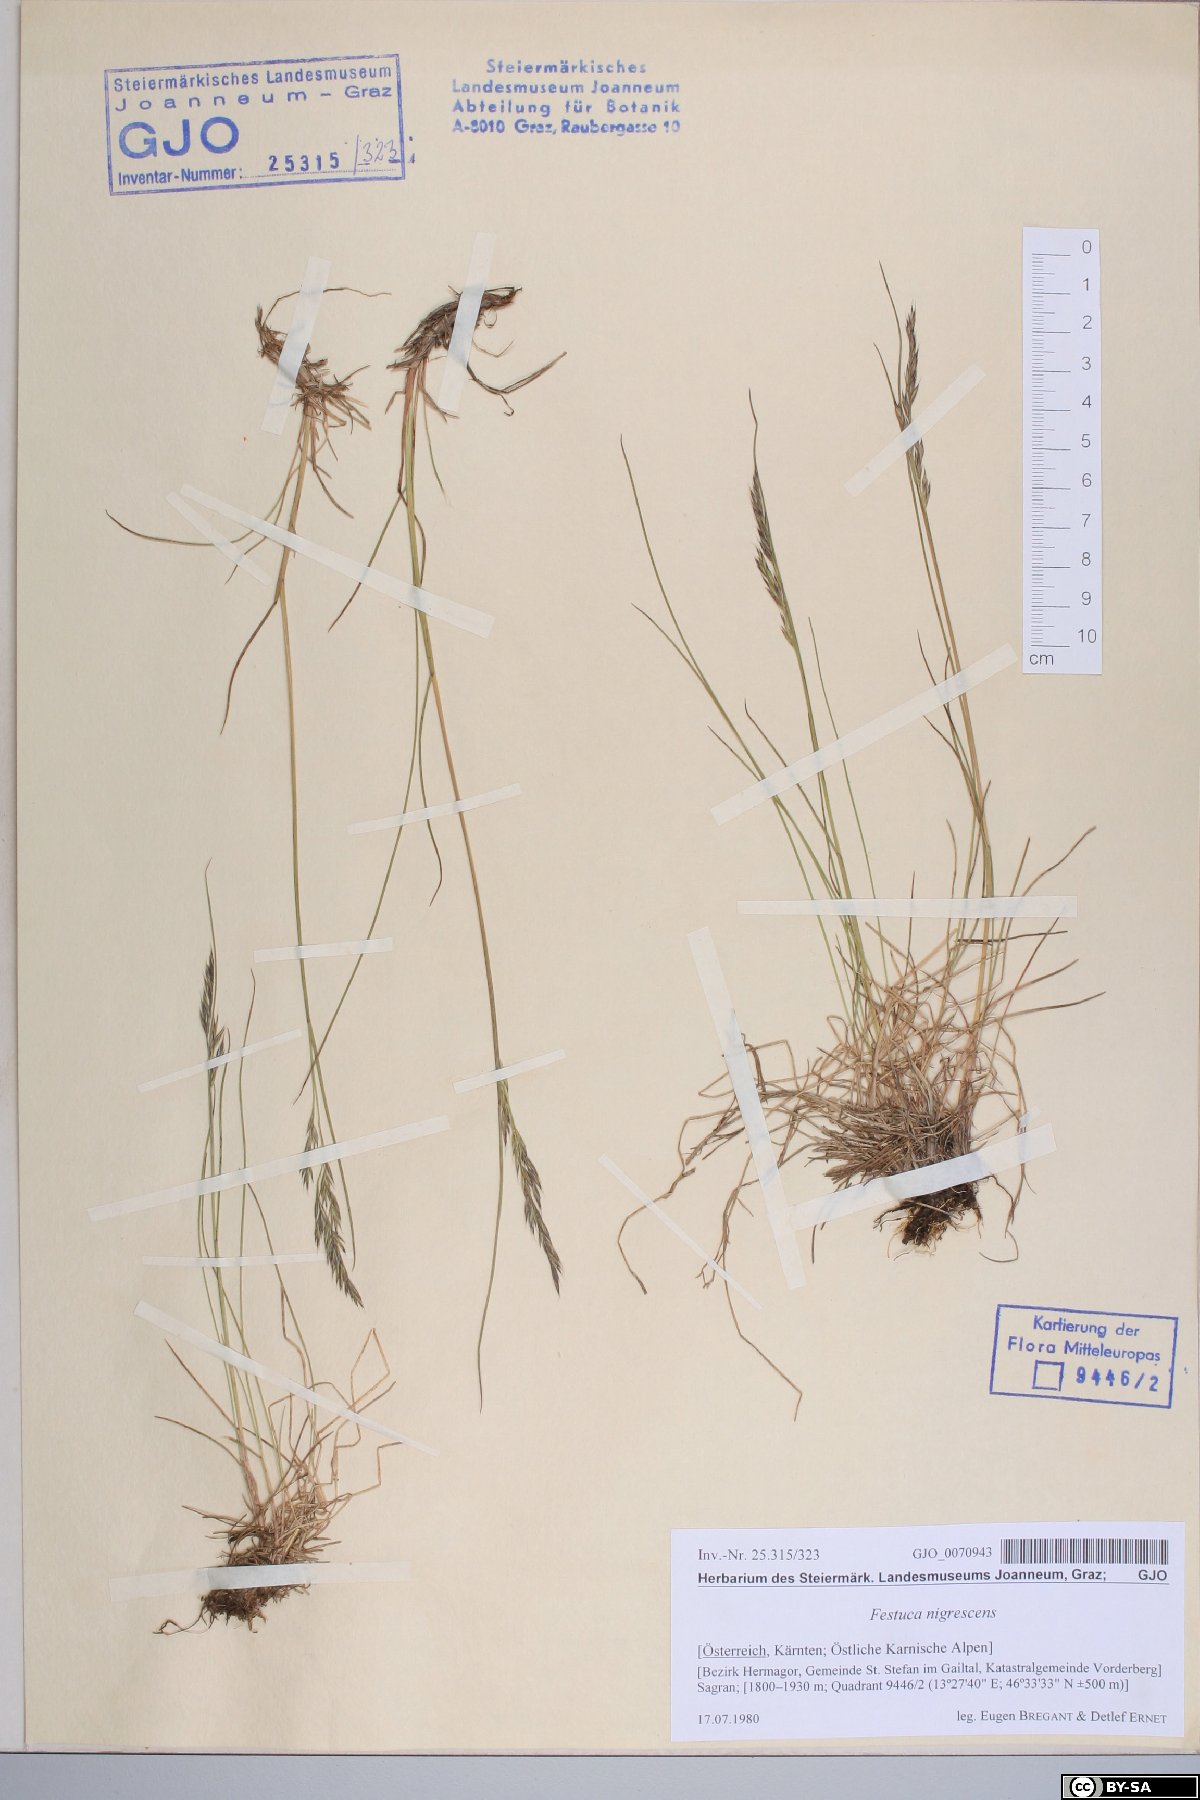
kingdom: Plantae
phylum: Tracheophyta
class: Liliopsida
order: Poales
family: Poaceae
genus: Festuca
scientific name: Festuca nigrescens
